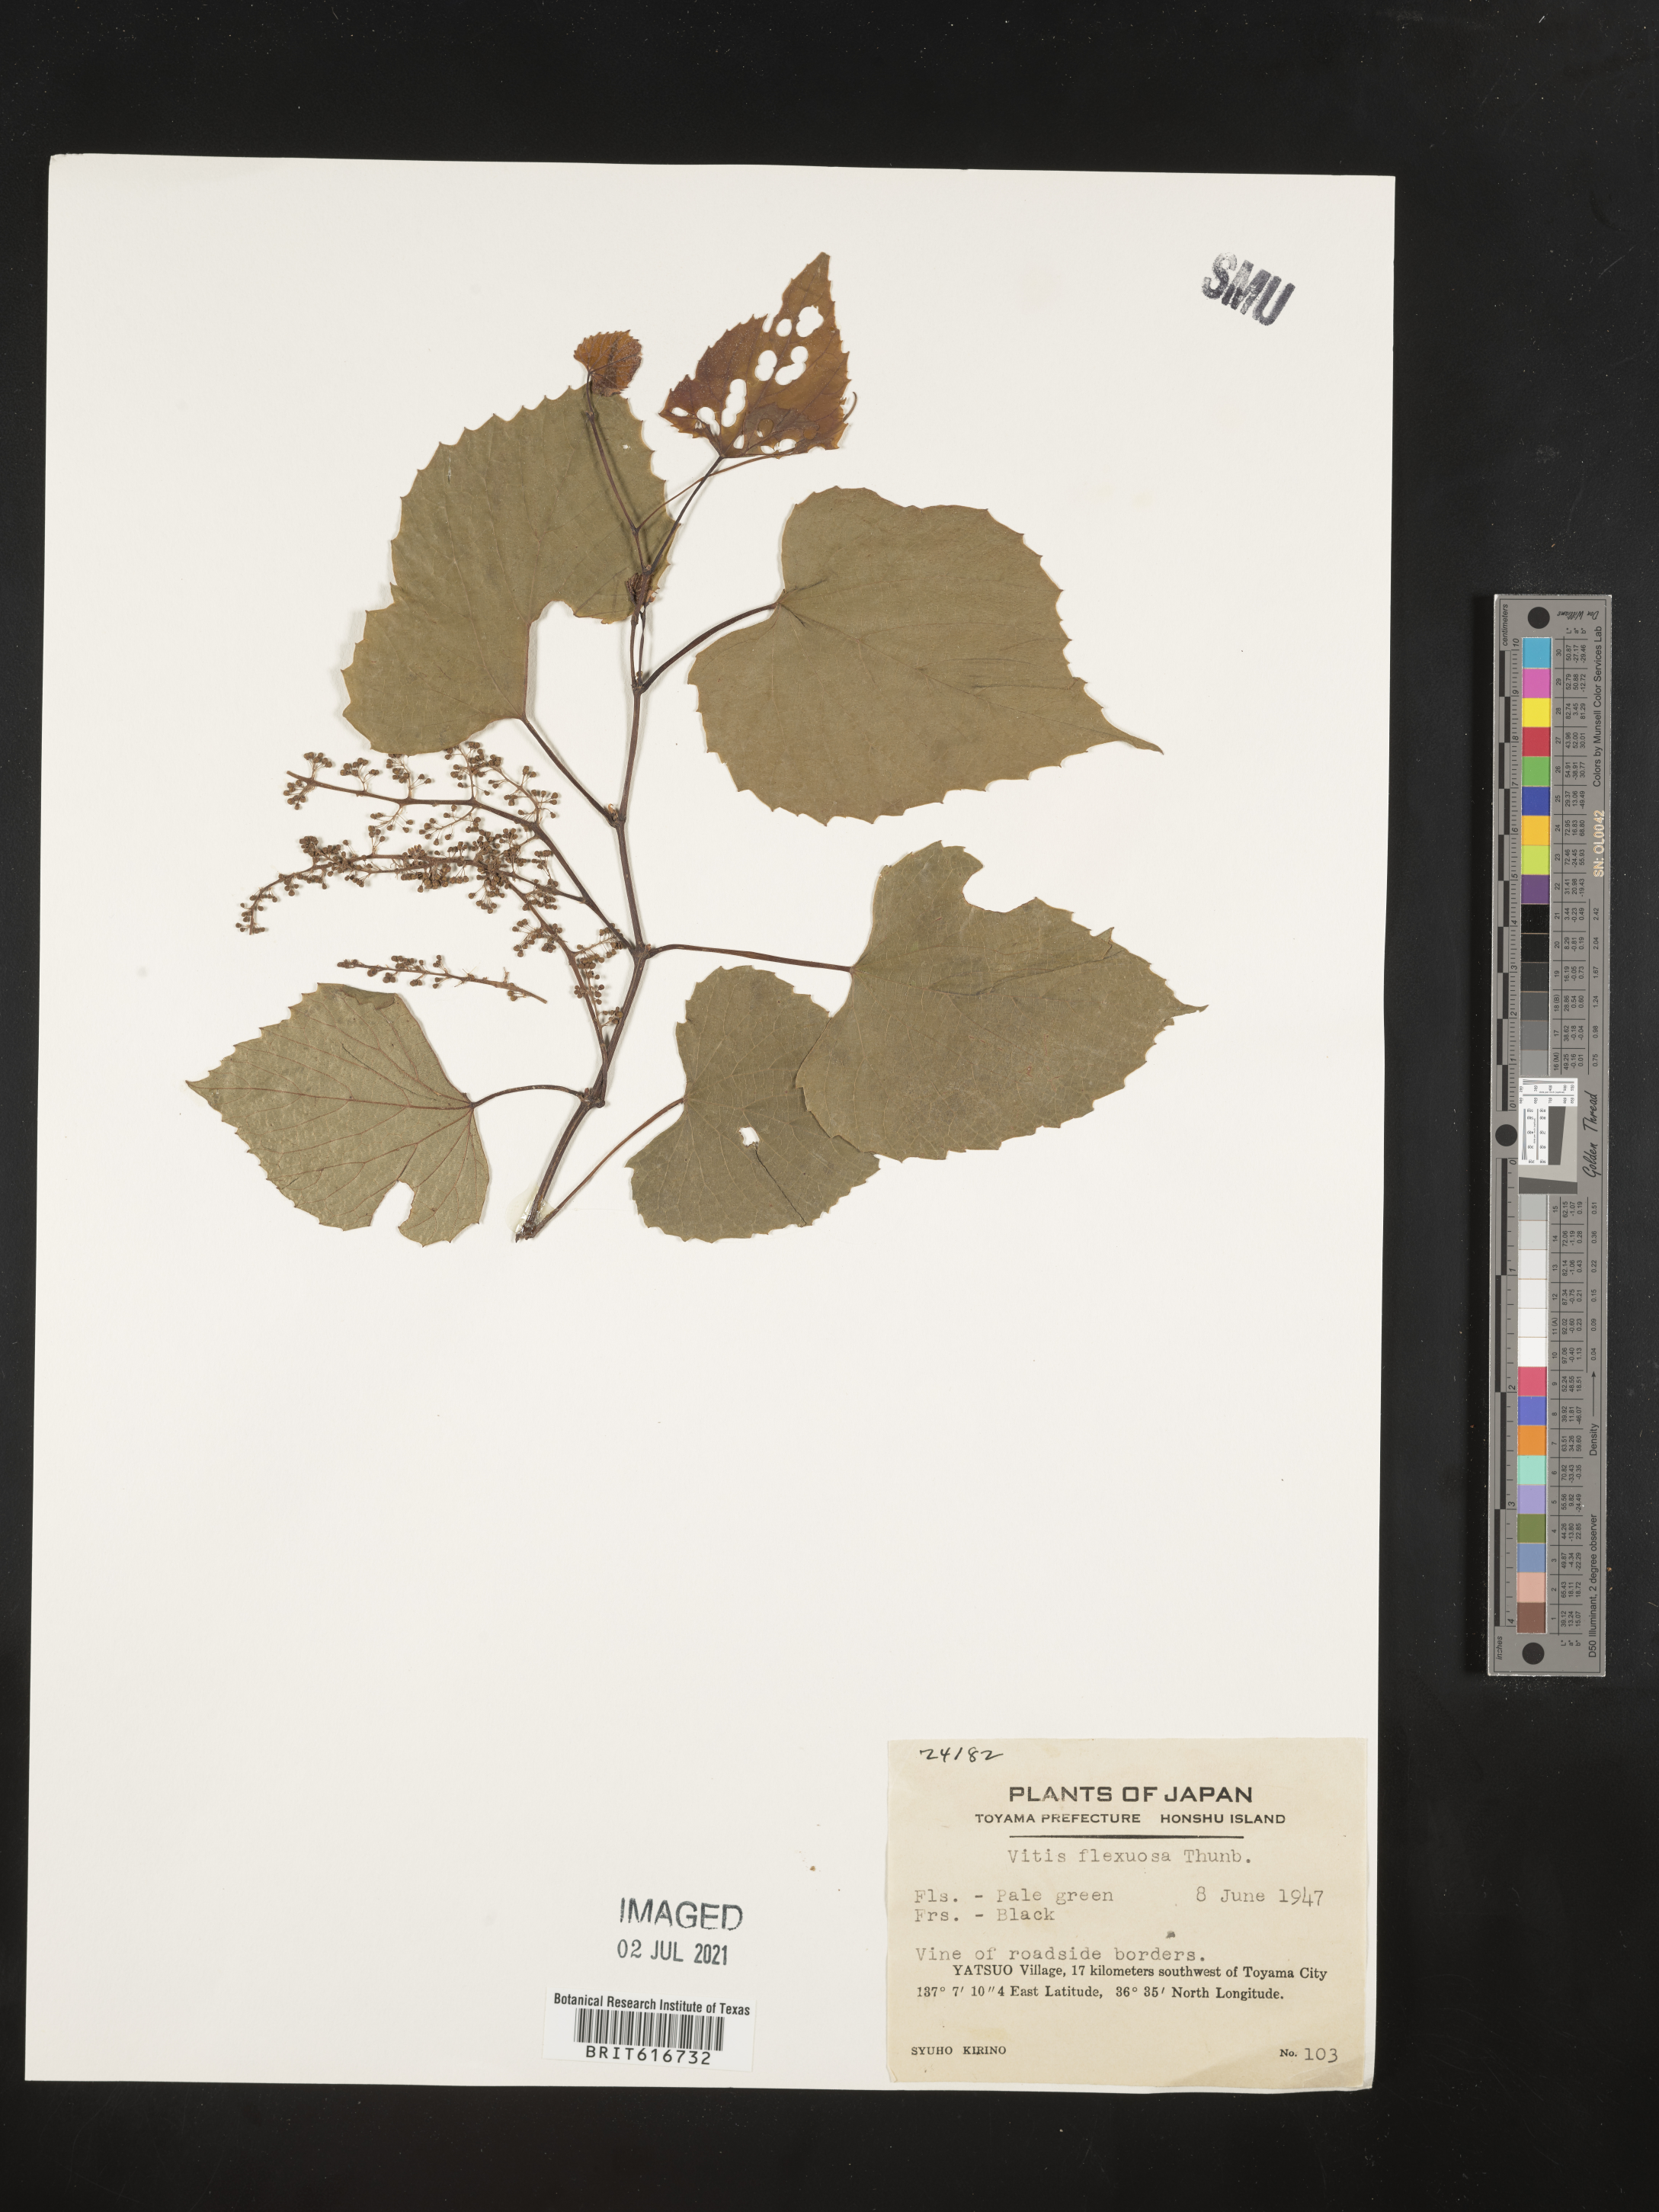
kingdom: Plantae
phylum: Tracheophyta
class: Magnoliopsida
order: Vitales
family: Vitaceae
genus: Vitis
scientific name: Vitis flexuosa
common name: Creeping grape
